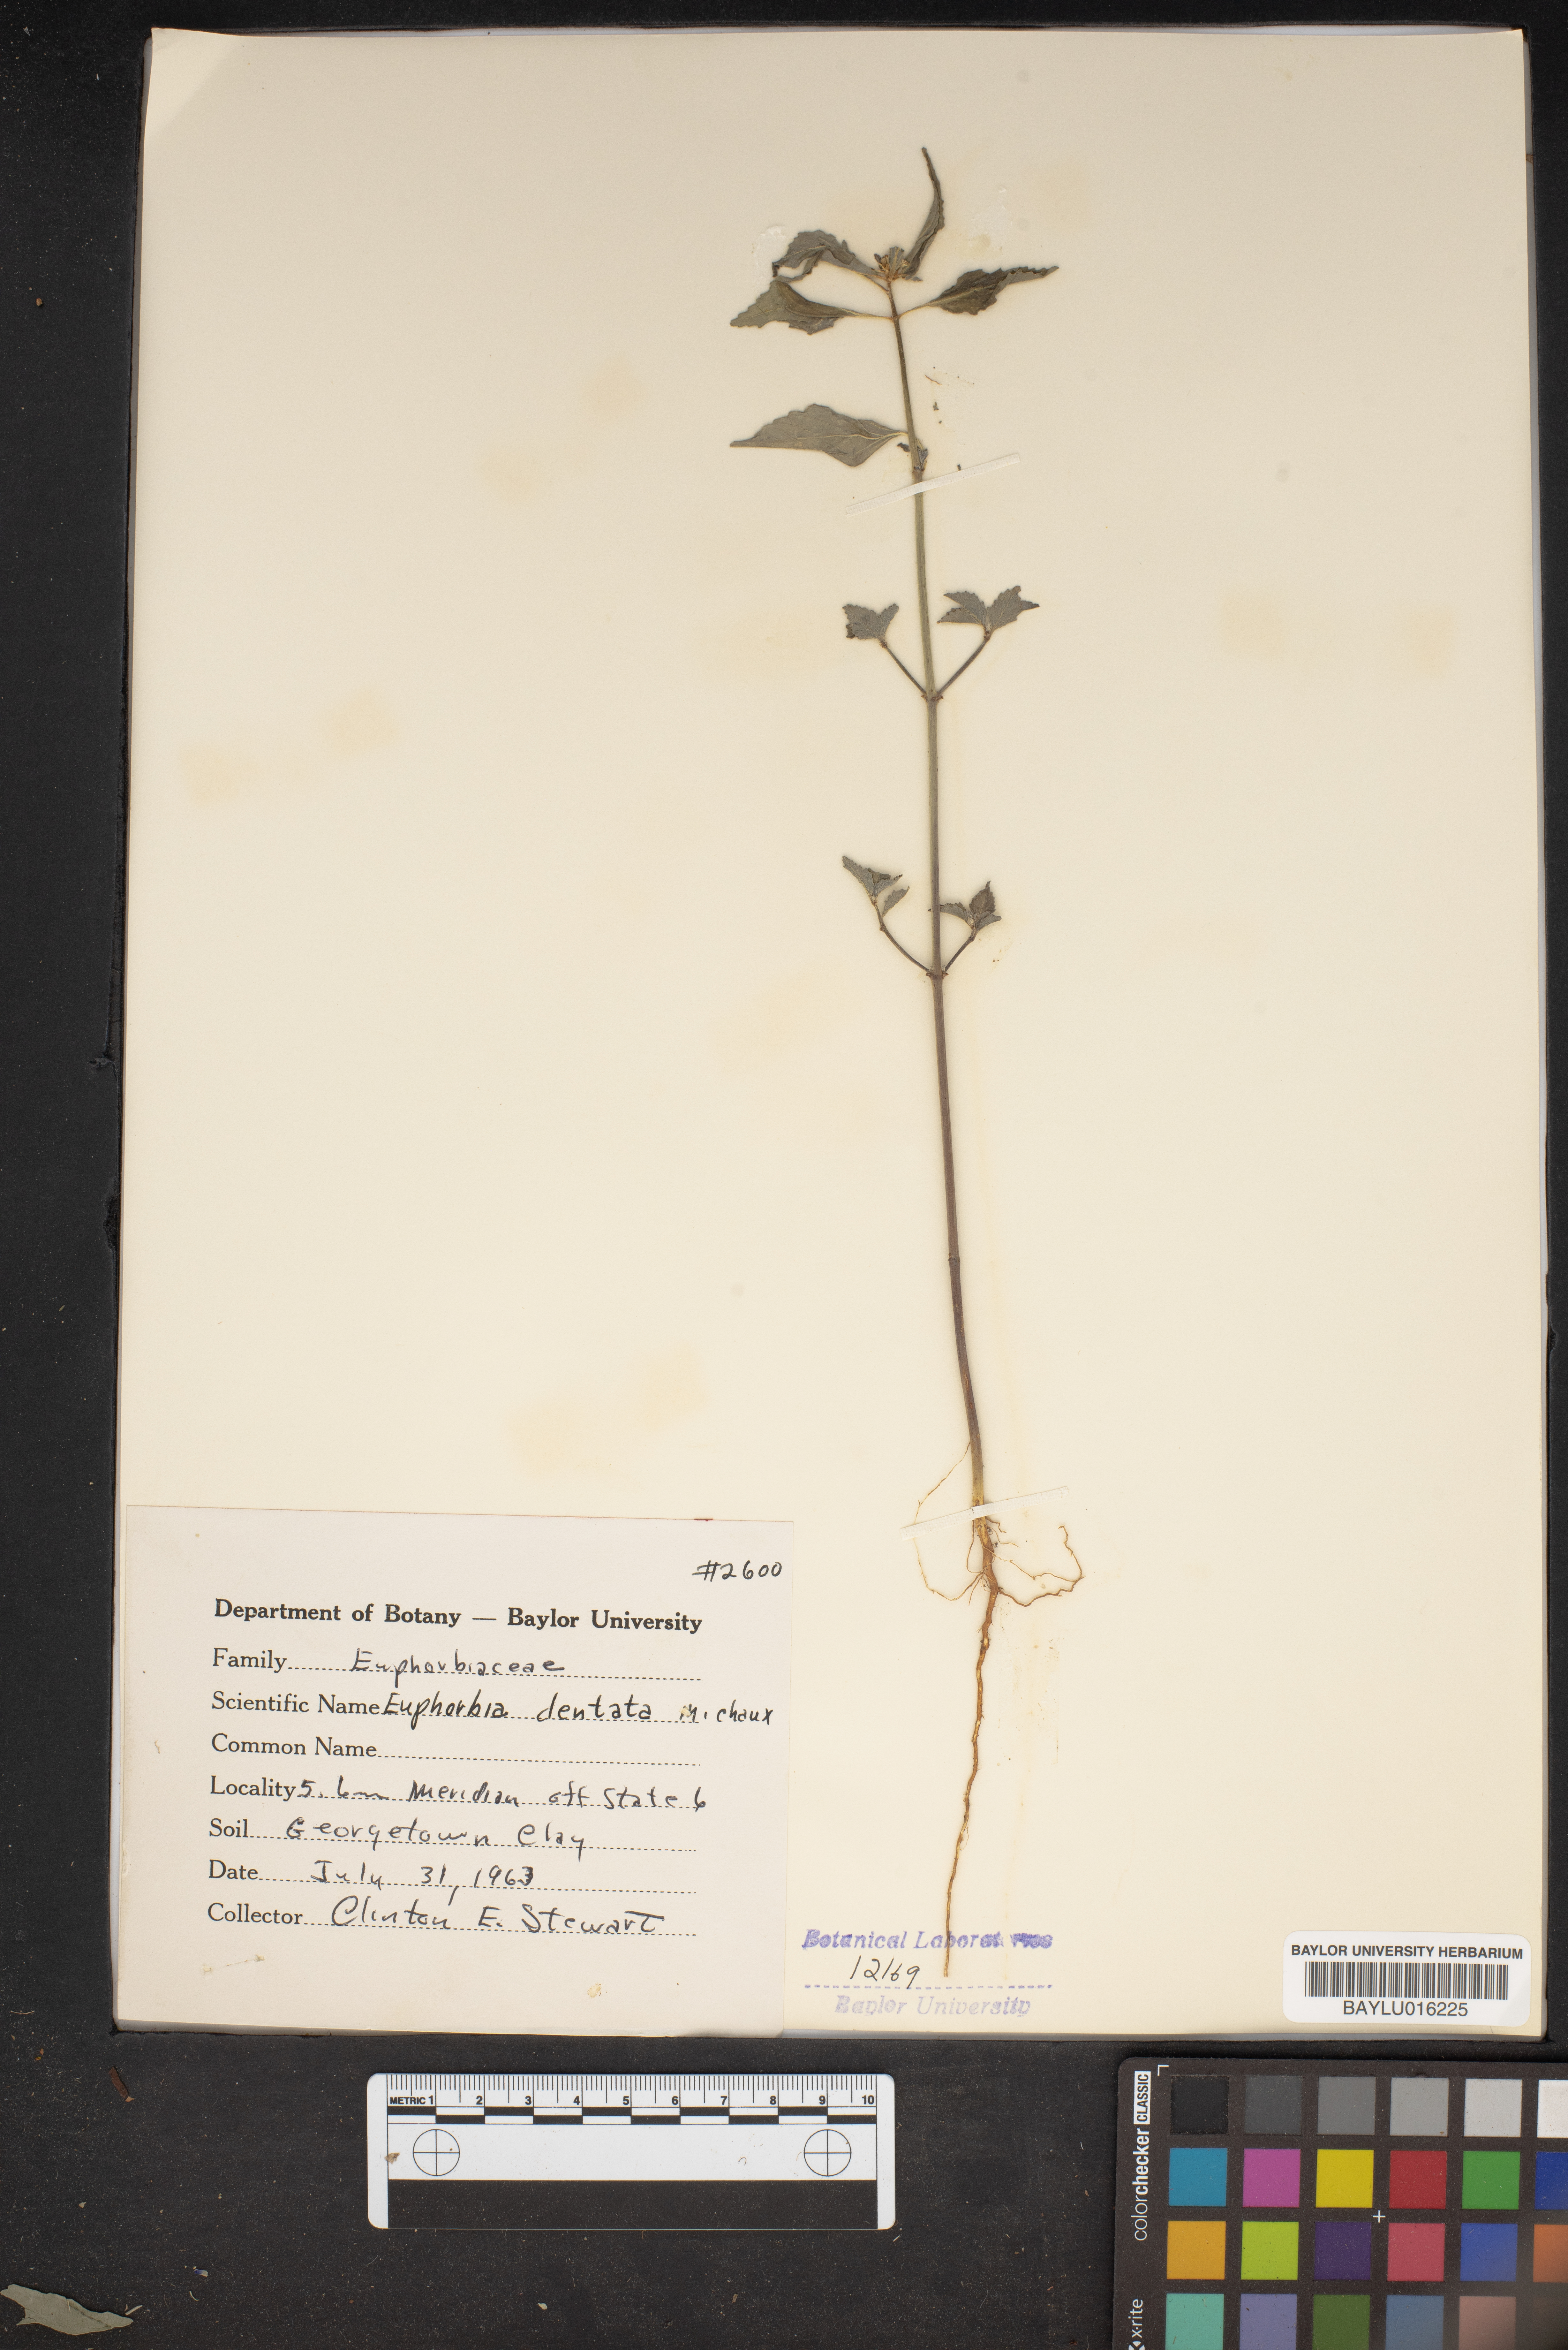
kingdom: Plantae
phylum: Tracheophyta
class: Magnoliopsida
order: Malpighiales
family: Euphorbiaceae
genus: Euphorbia
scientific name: Euphorbia dentata
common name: Dentate spurge
